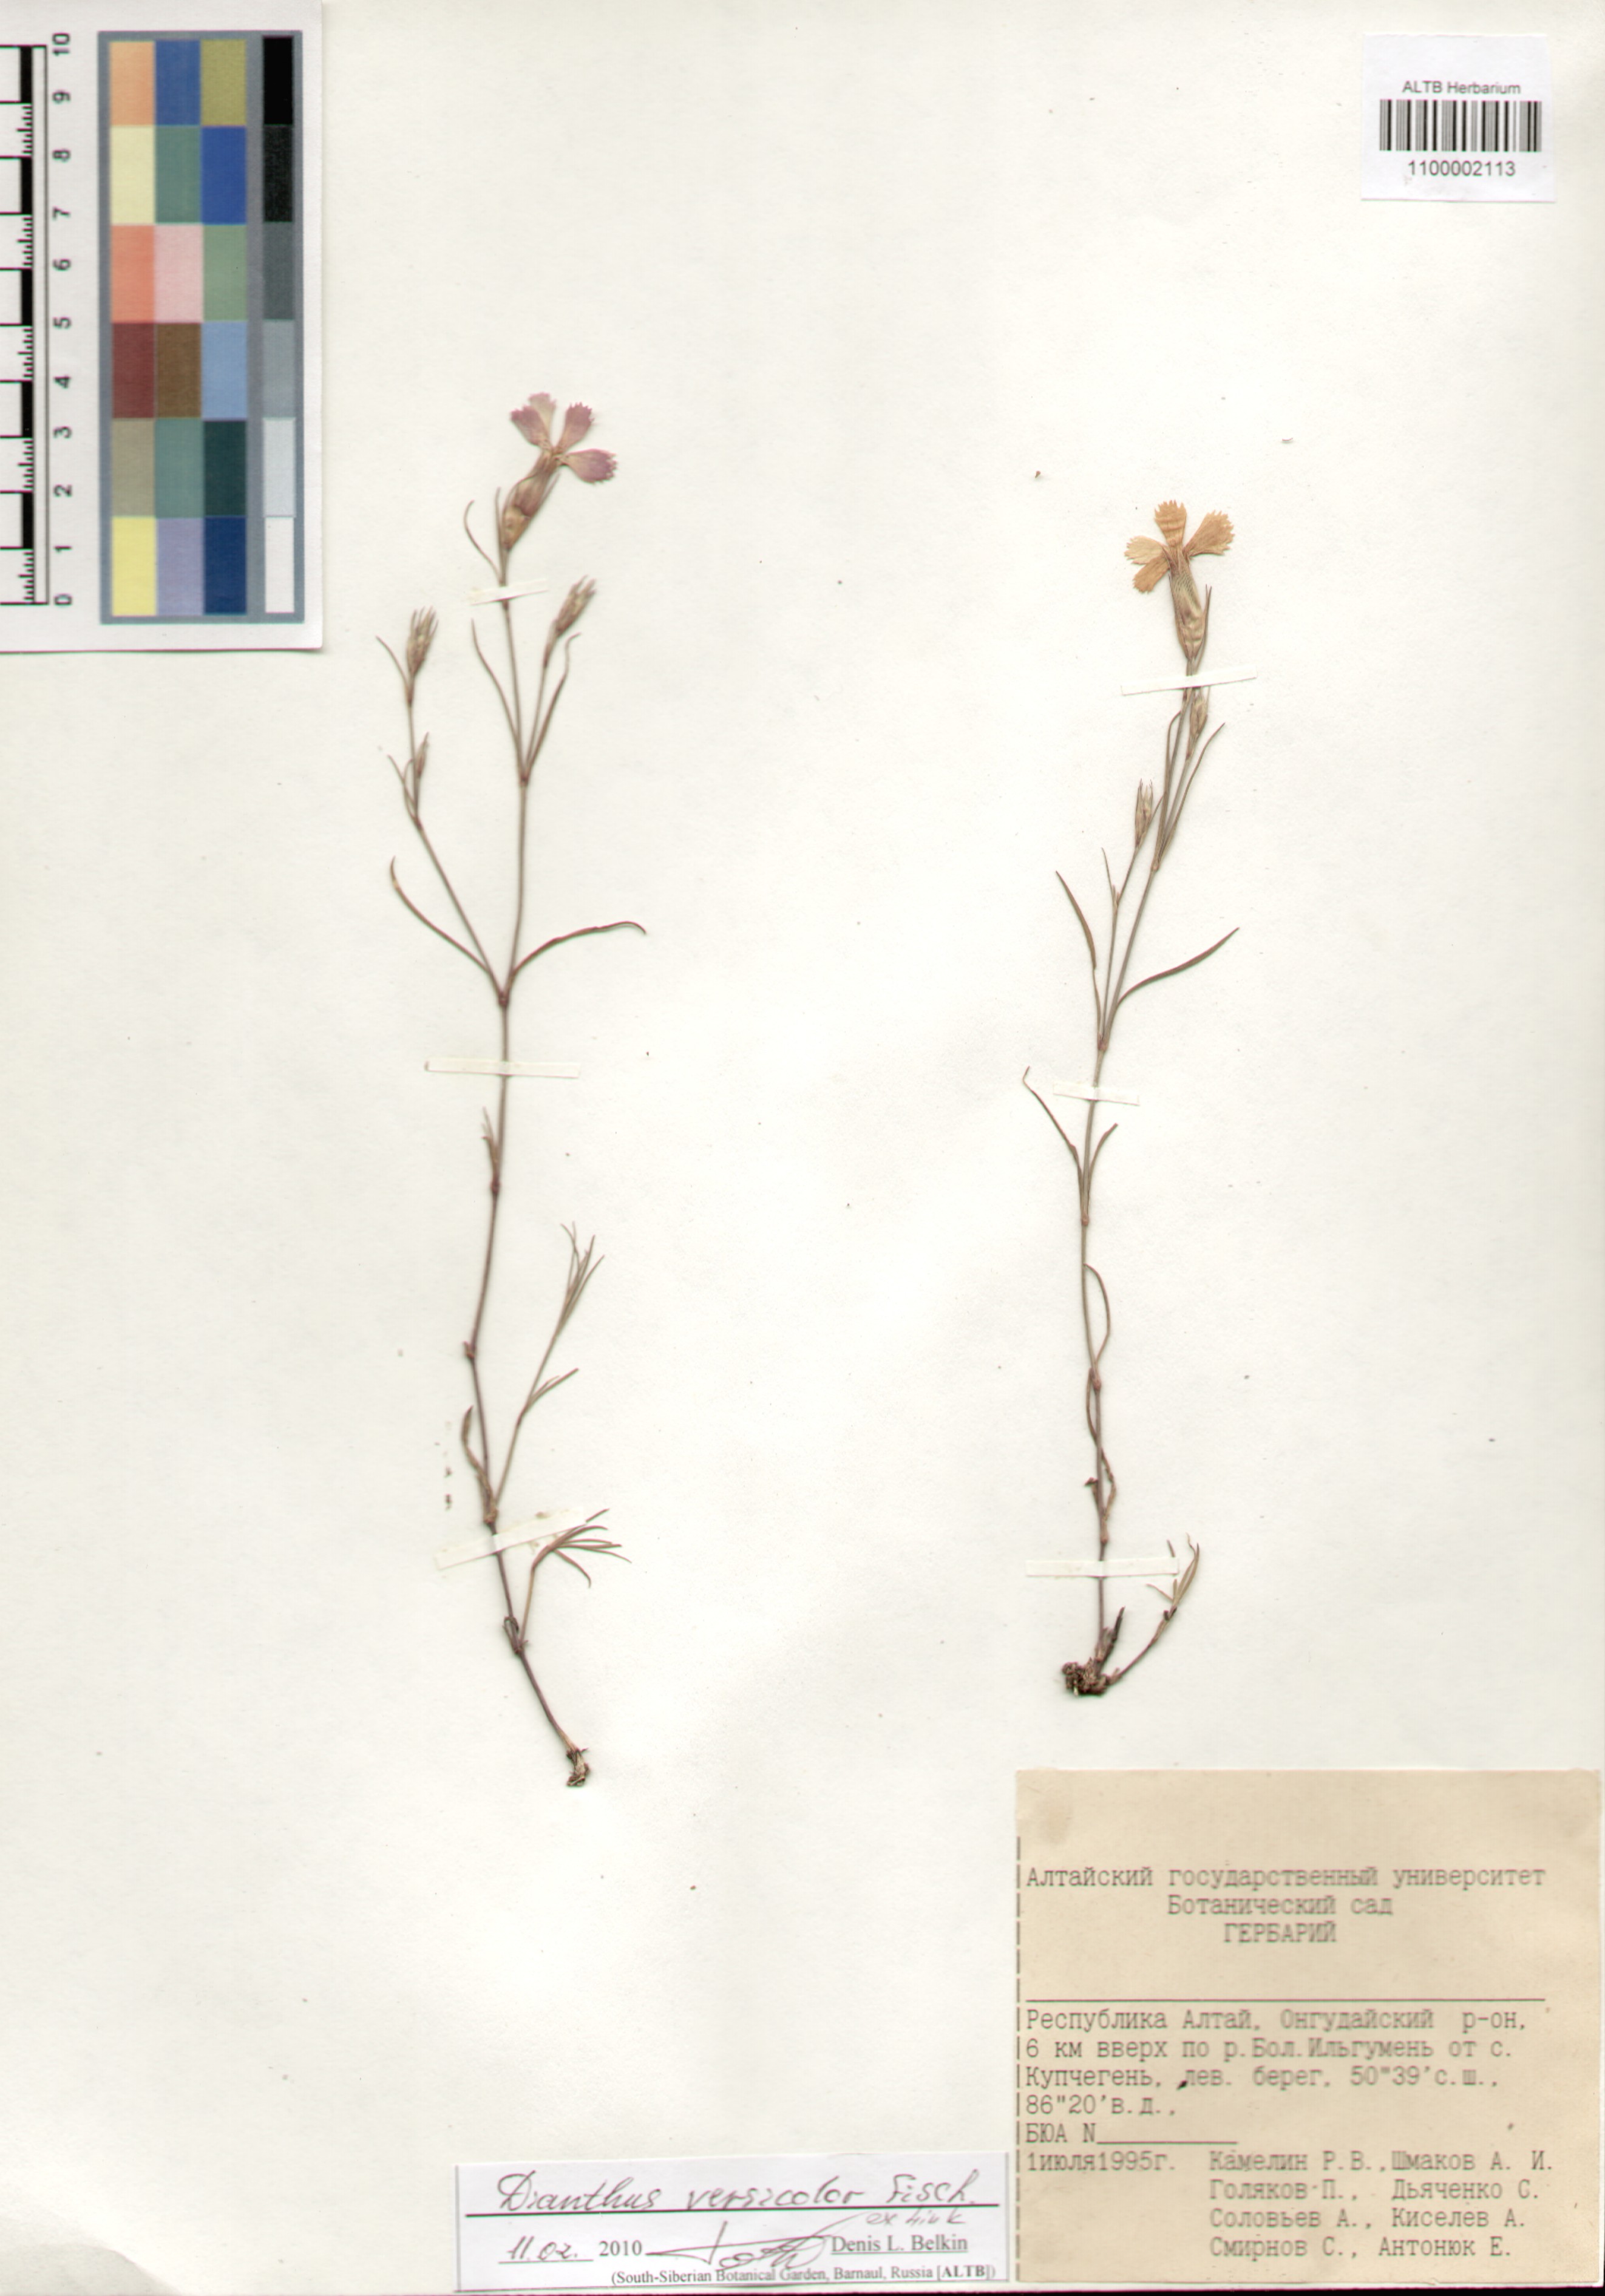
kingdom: Plantae
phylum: Tracheophyta
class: Magnoliopsida
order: Caryophyllales
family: Caryophyllaceae
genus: Dianthus
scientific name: Dianthus chinensis
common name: Rainbow pink
